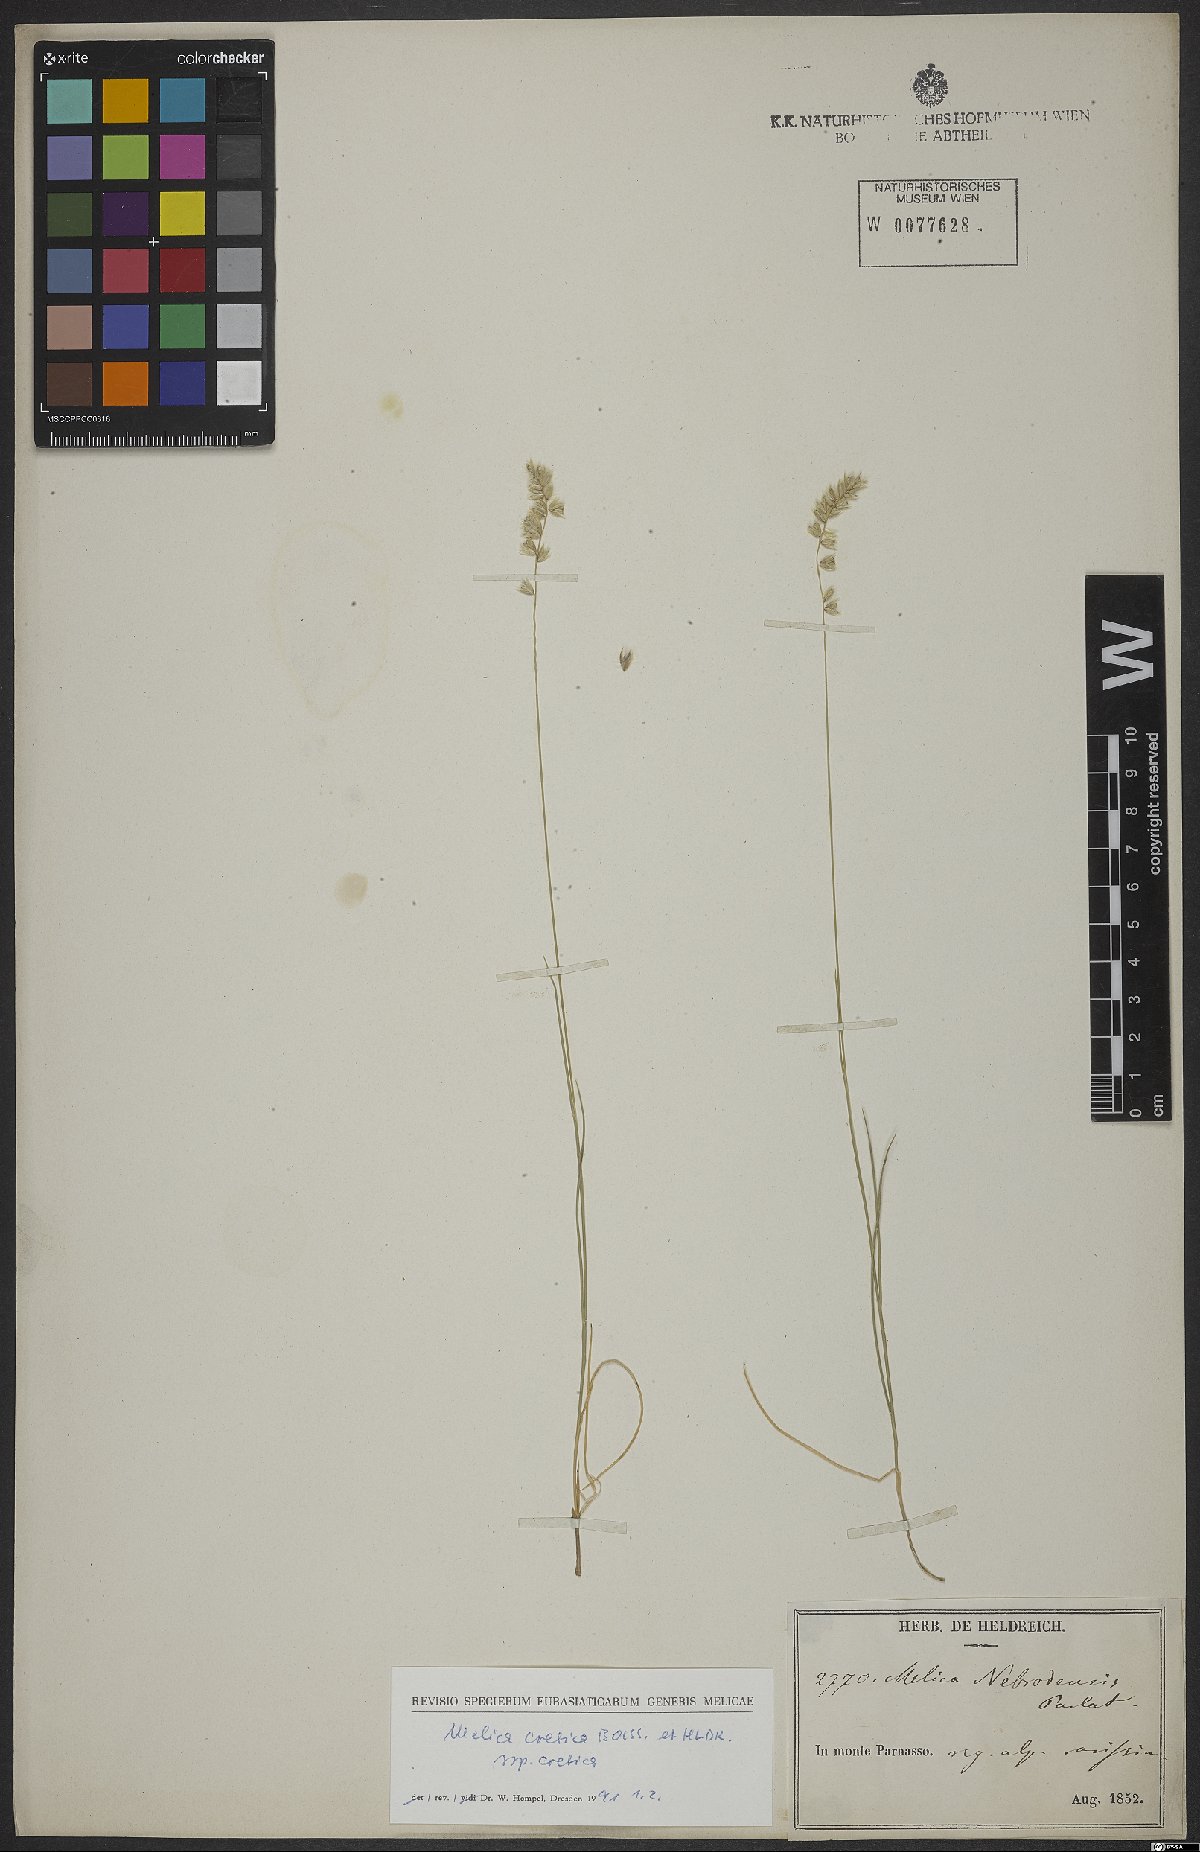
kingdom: Plantae
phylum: Tracheophyta
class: Liliopsida
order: Poales
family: Poaceae
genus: Melica
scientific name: Melica ciliata
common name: Hairy melicgrass
